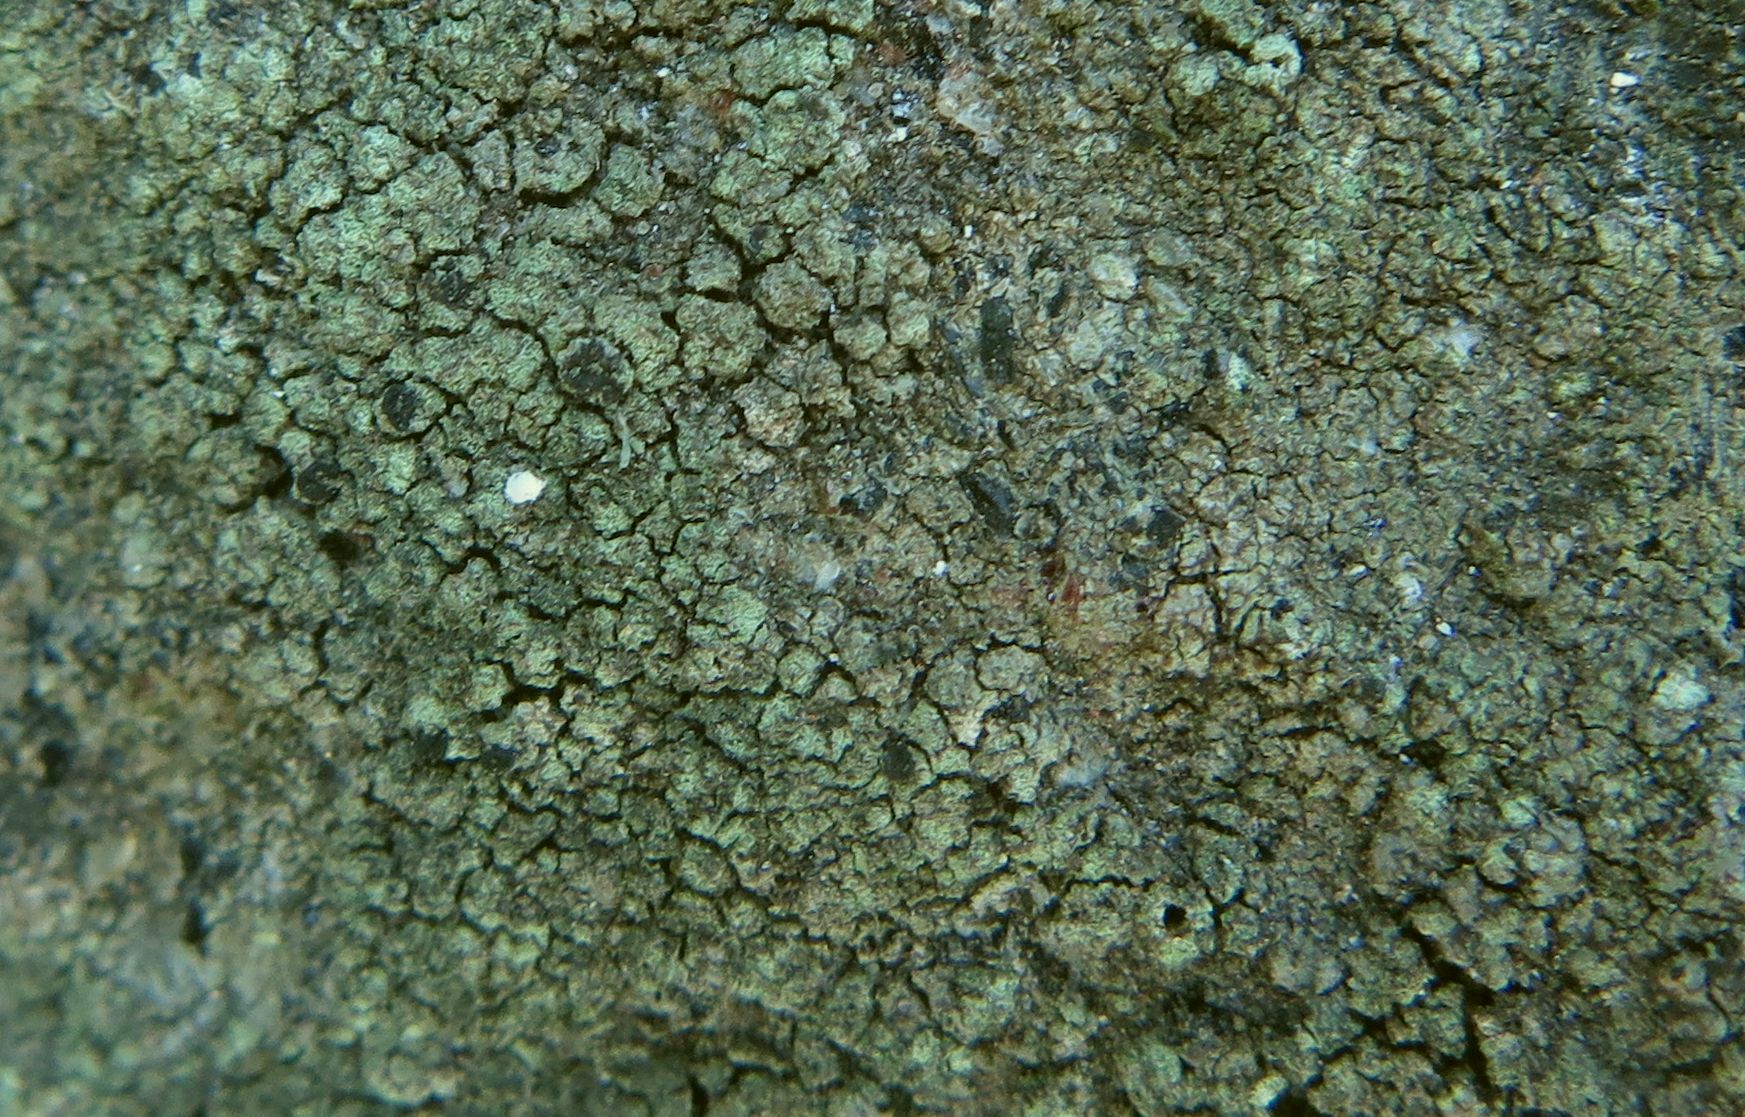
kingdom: Fungi
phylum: Ascomycota
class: Lecanoromycetes
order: Lecanorales
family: Lecanoraceae
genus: Lecidella
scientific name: Lecidella scabra
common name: skurvet skivelav
